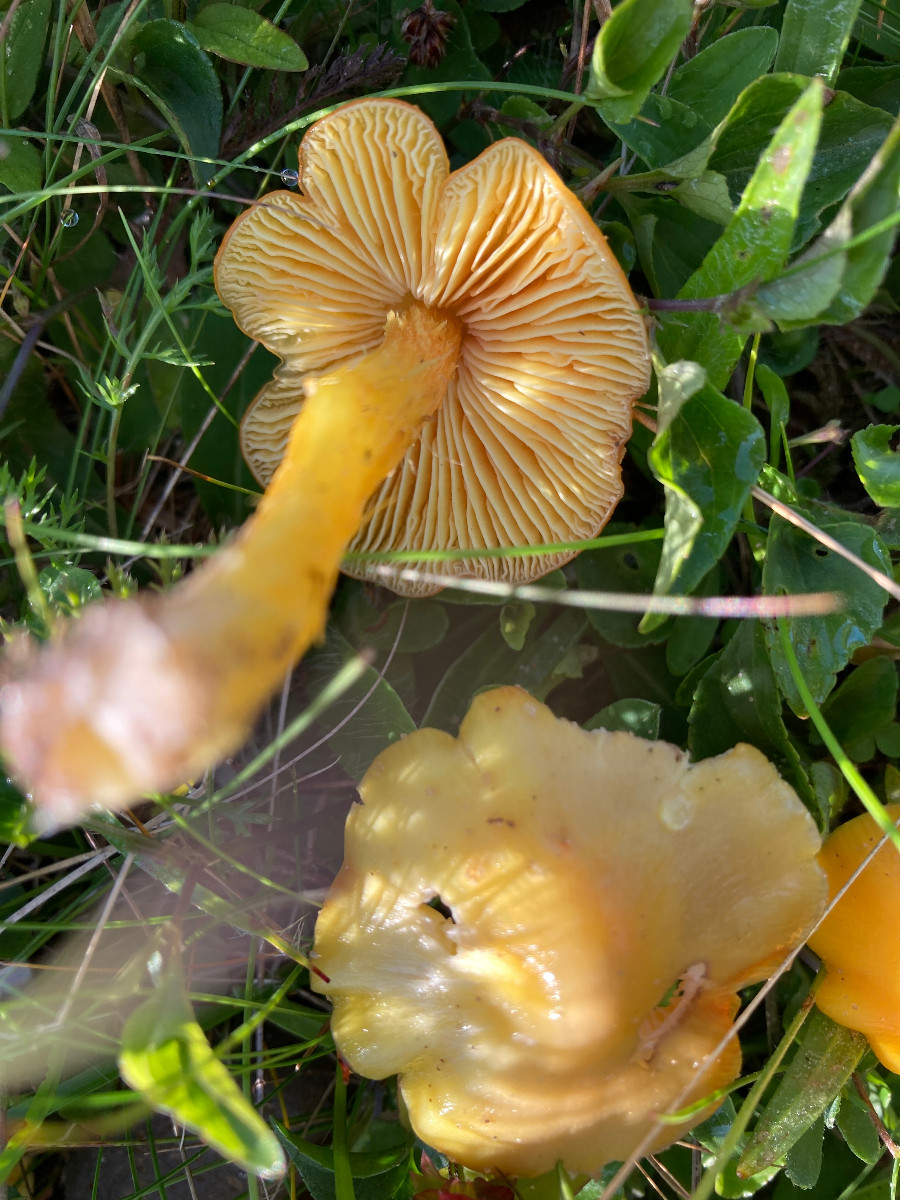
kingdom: Fungi
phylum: Basidiomycota
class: Agaricomycetes
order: Agaricales
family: Hygrophoraceae
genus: Hygrocybe
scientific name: Hygrocybe acutoconica
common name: spidspuklet vokshat
